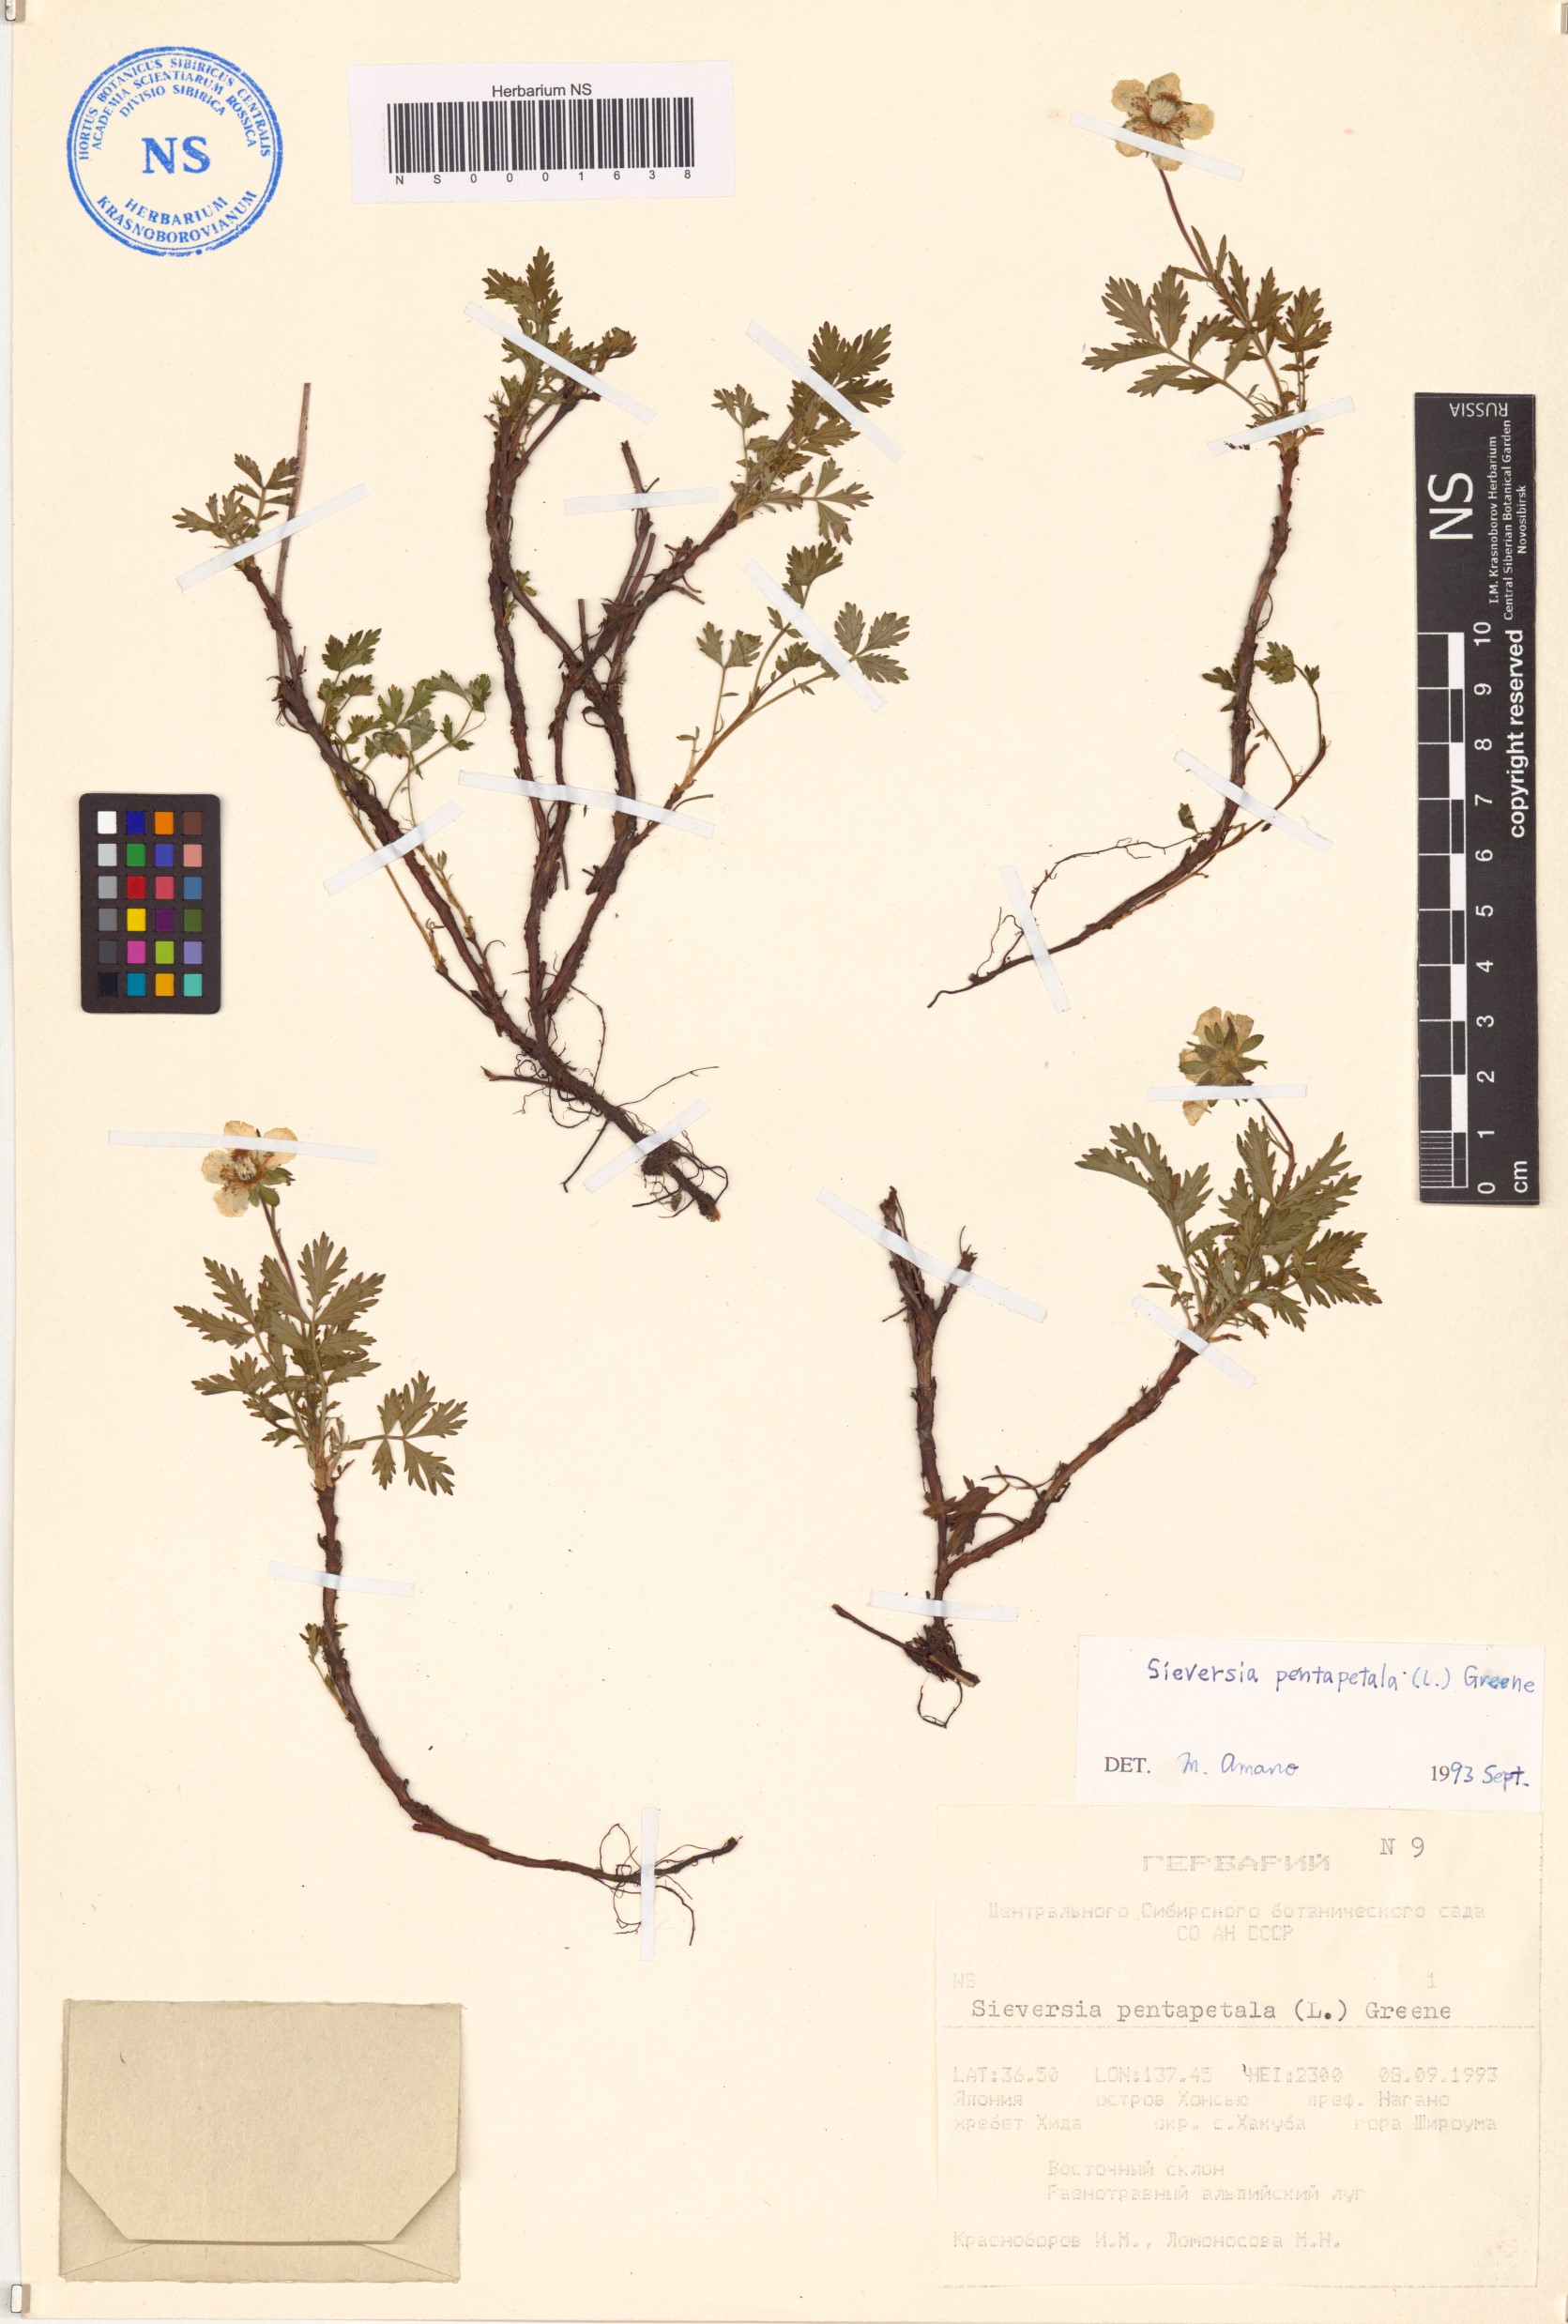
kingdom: Plantae
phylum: Tracheophyta
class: Magnoliopsida
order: Rosales
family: Rosaceae
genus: Geum
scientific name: Geum pentapetalum
